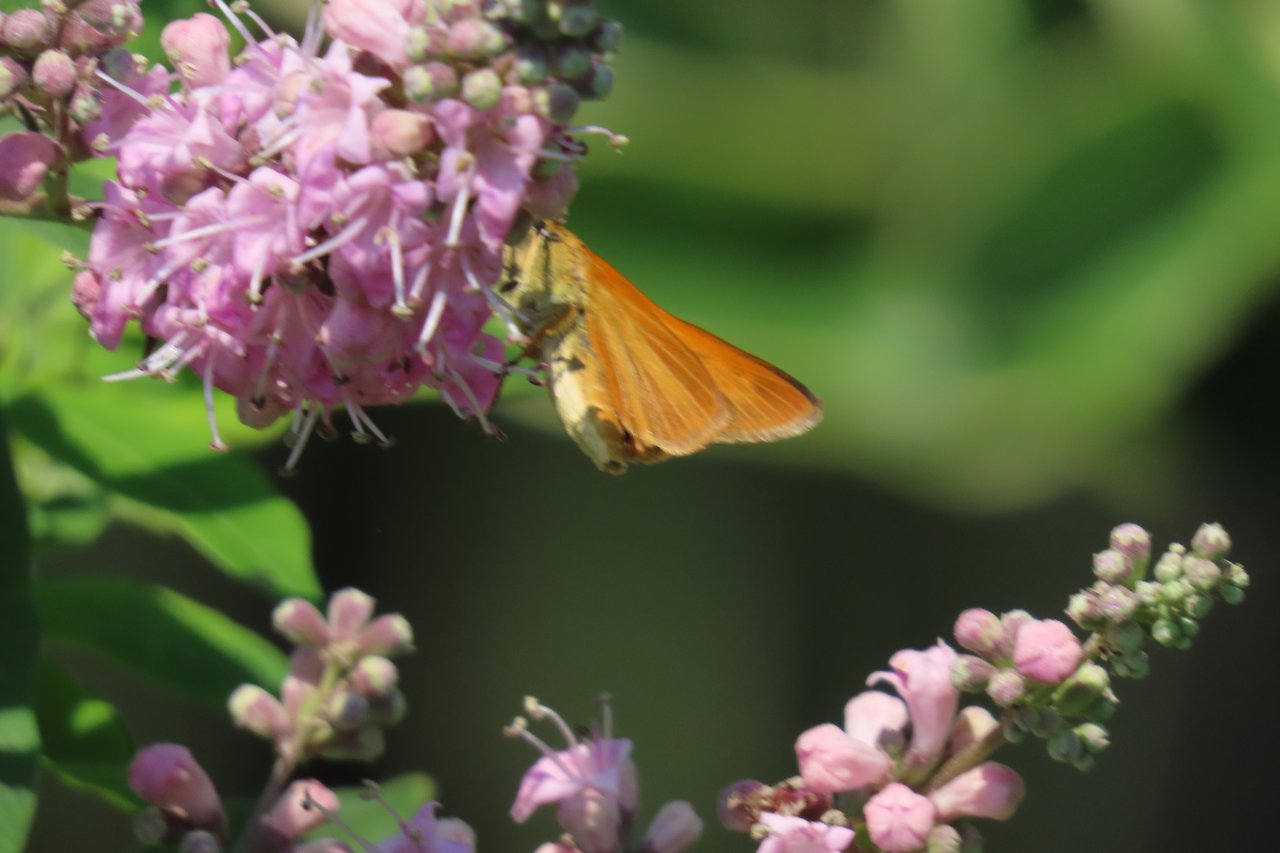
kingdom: Animalia
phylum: Arthropoda
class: Insecta
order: Lepidoptera
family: Hesperiidae
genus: Euphyes
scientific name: Euphyes dion
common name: Dion Skipper
